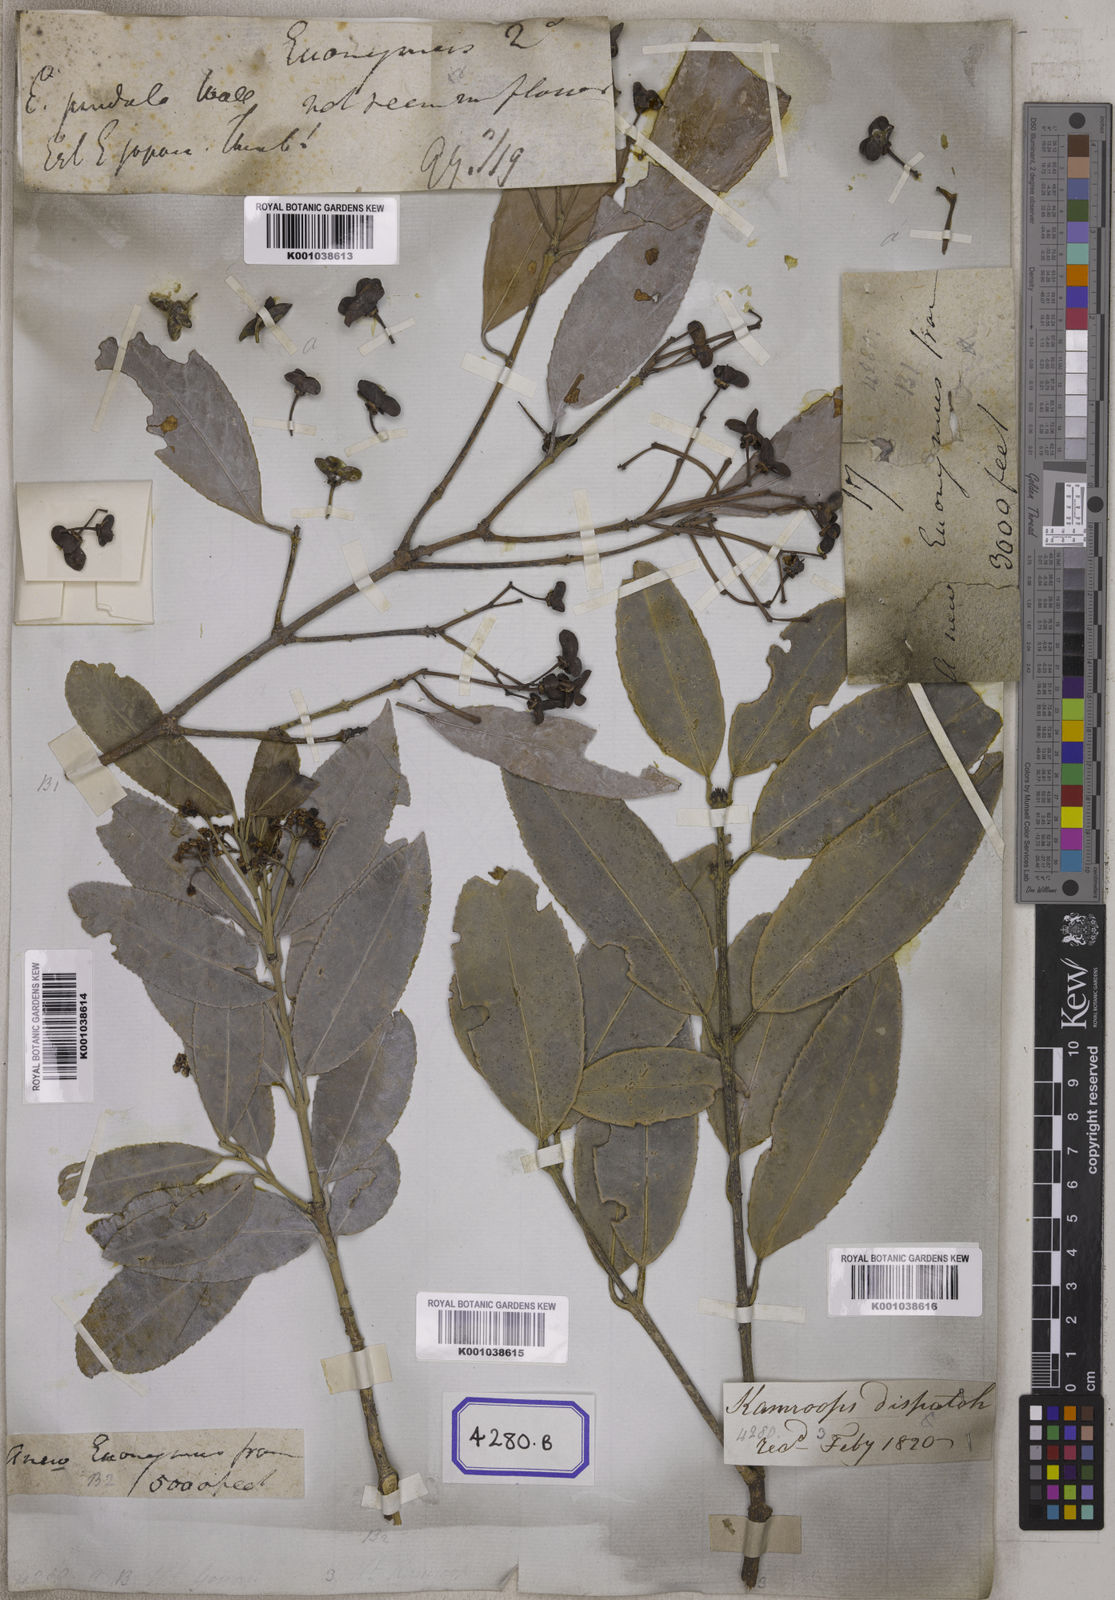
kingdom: Plantae
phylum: Tracheophyta
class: Magnoliopsida
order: Celastrales
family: Celastraceae
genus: Euonymus
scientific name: Euonymus lucidus
